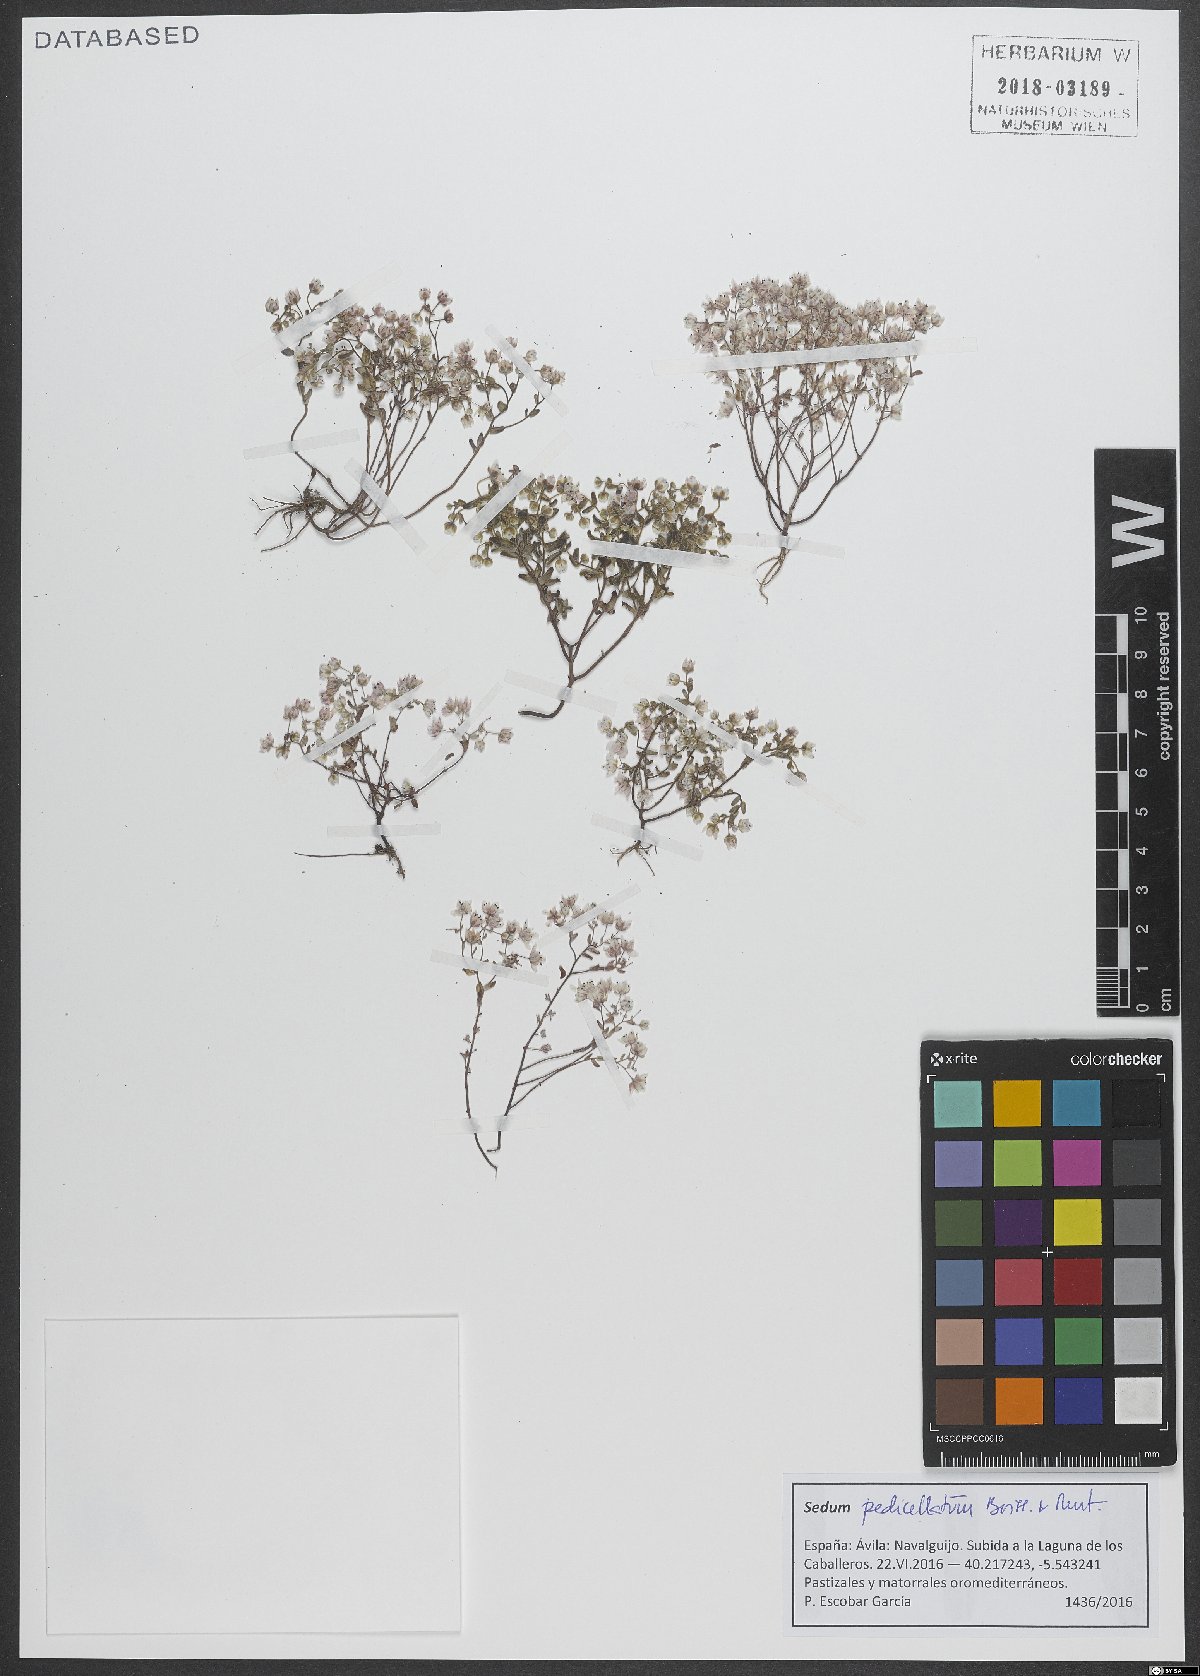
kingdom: Plantae
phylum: Tracheophyta
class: Magnoliopsida
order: Saxifragales
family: Crassulaceae
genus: Sedum
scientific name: Sedum pedicellatum
